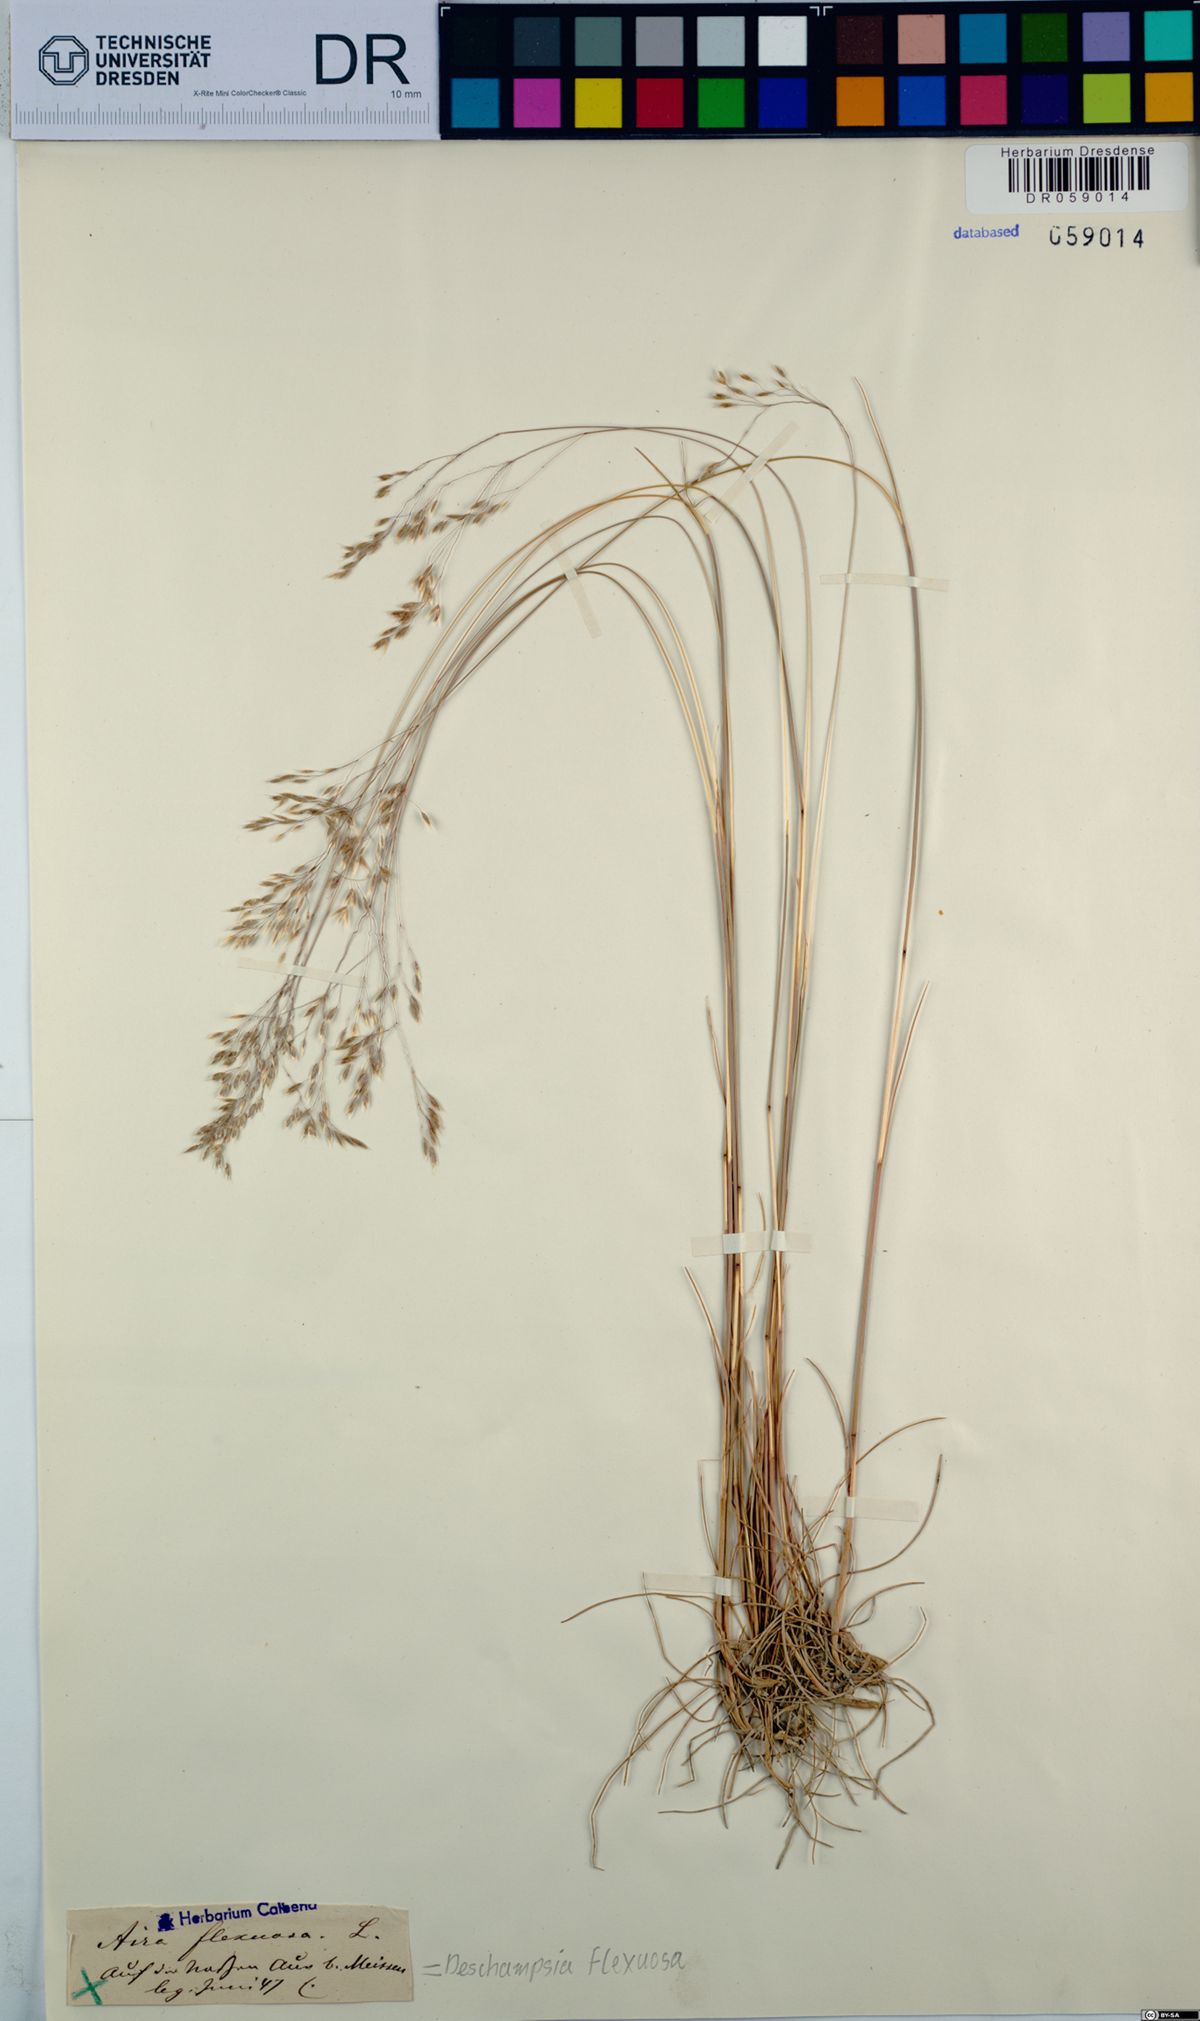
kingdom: Plantae
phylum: Tracheophyta
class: Liliopsida
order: Poales
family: Poaceae
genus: Avenella
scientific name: Avenella flexuosa
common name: Wavy hairgrass
